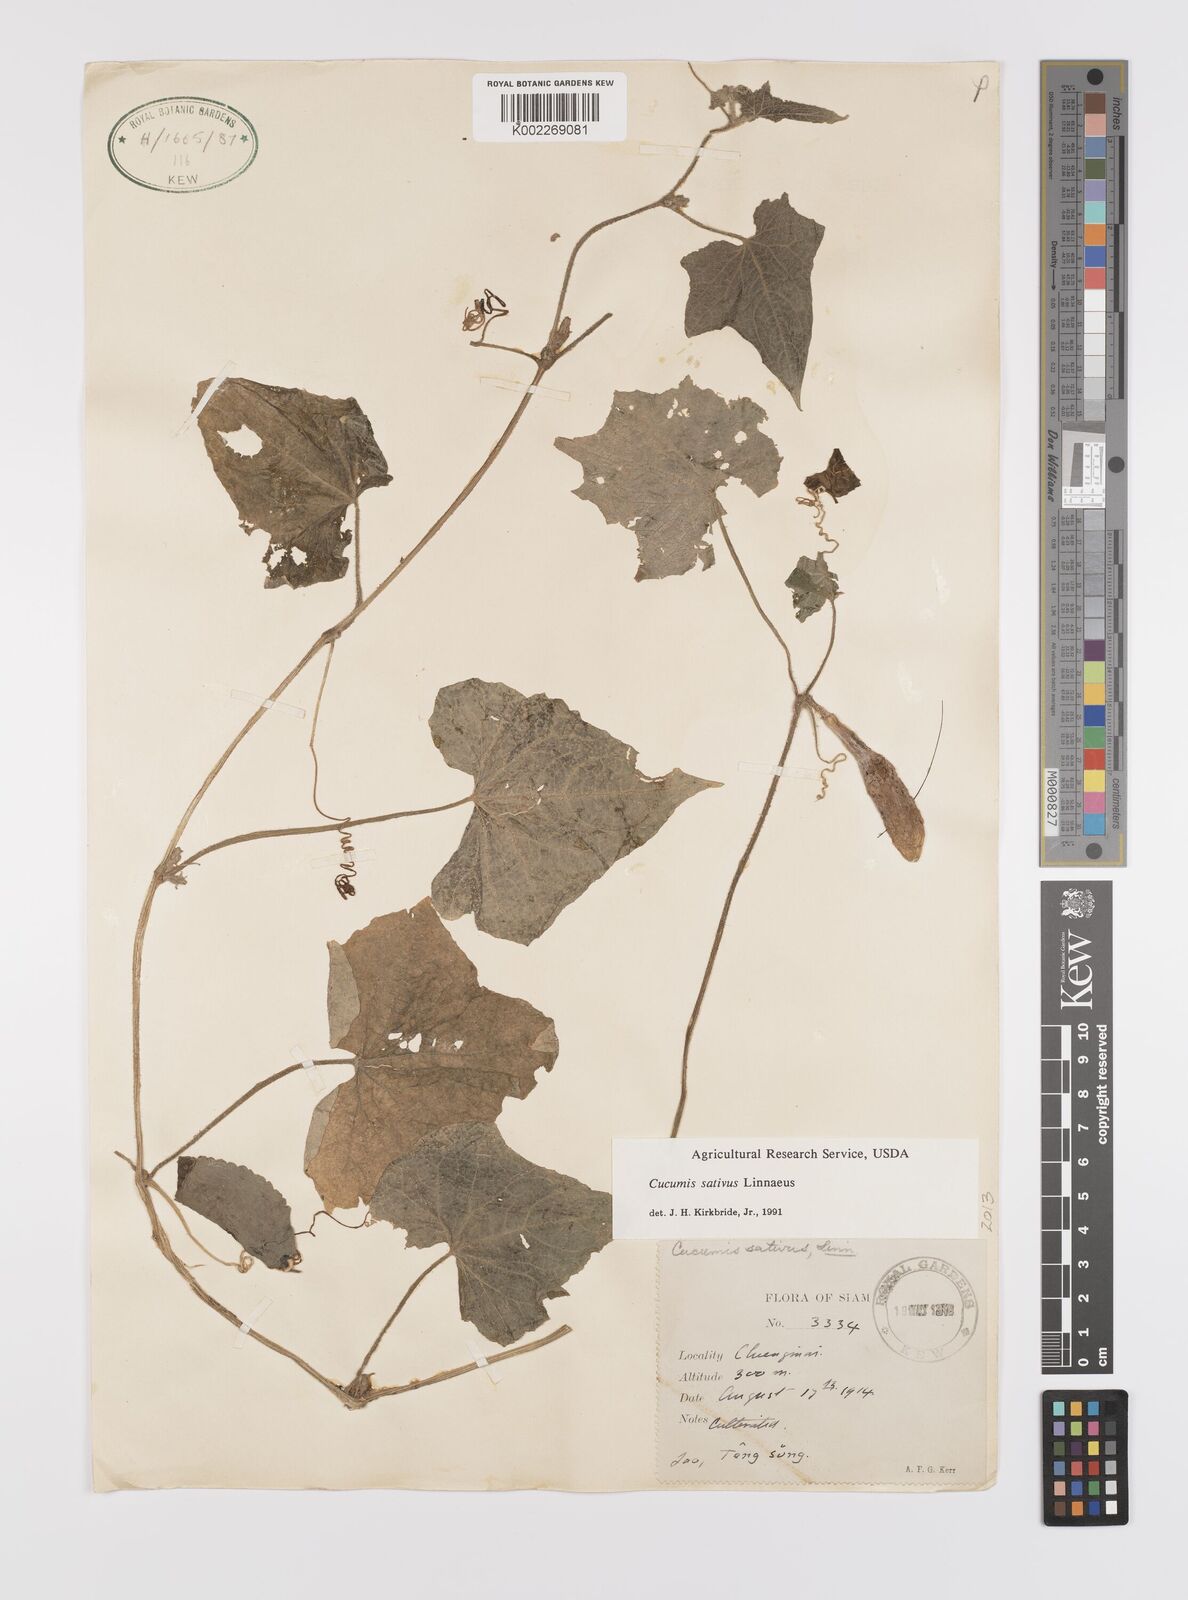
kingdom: Plantae
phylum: Tracheophyta
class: Magnoliopsida
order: Cucurbitales
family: Cucurbitaceae
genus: Cucumis
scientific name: Cucumis sativus
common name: Cucumber
